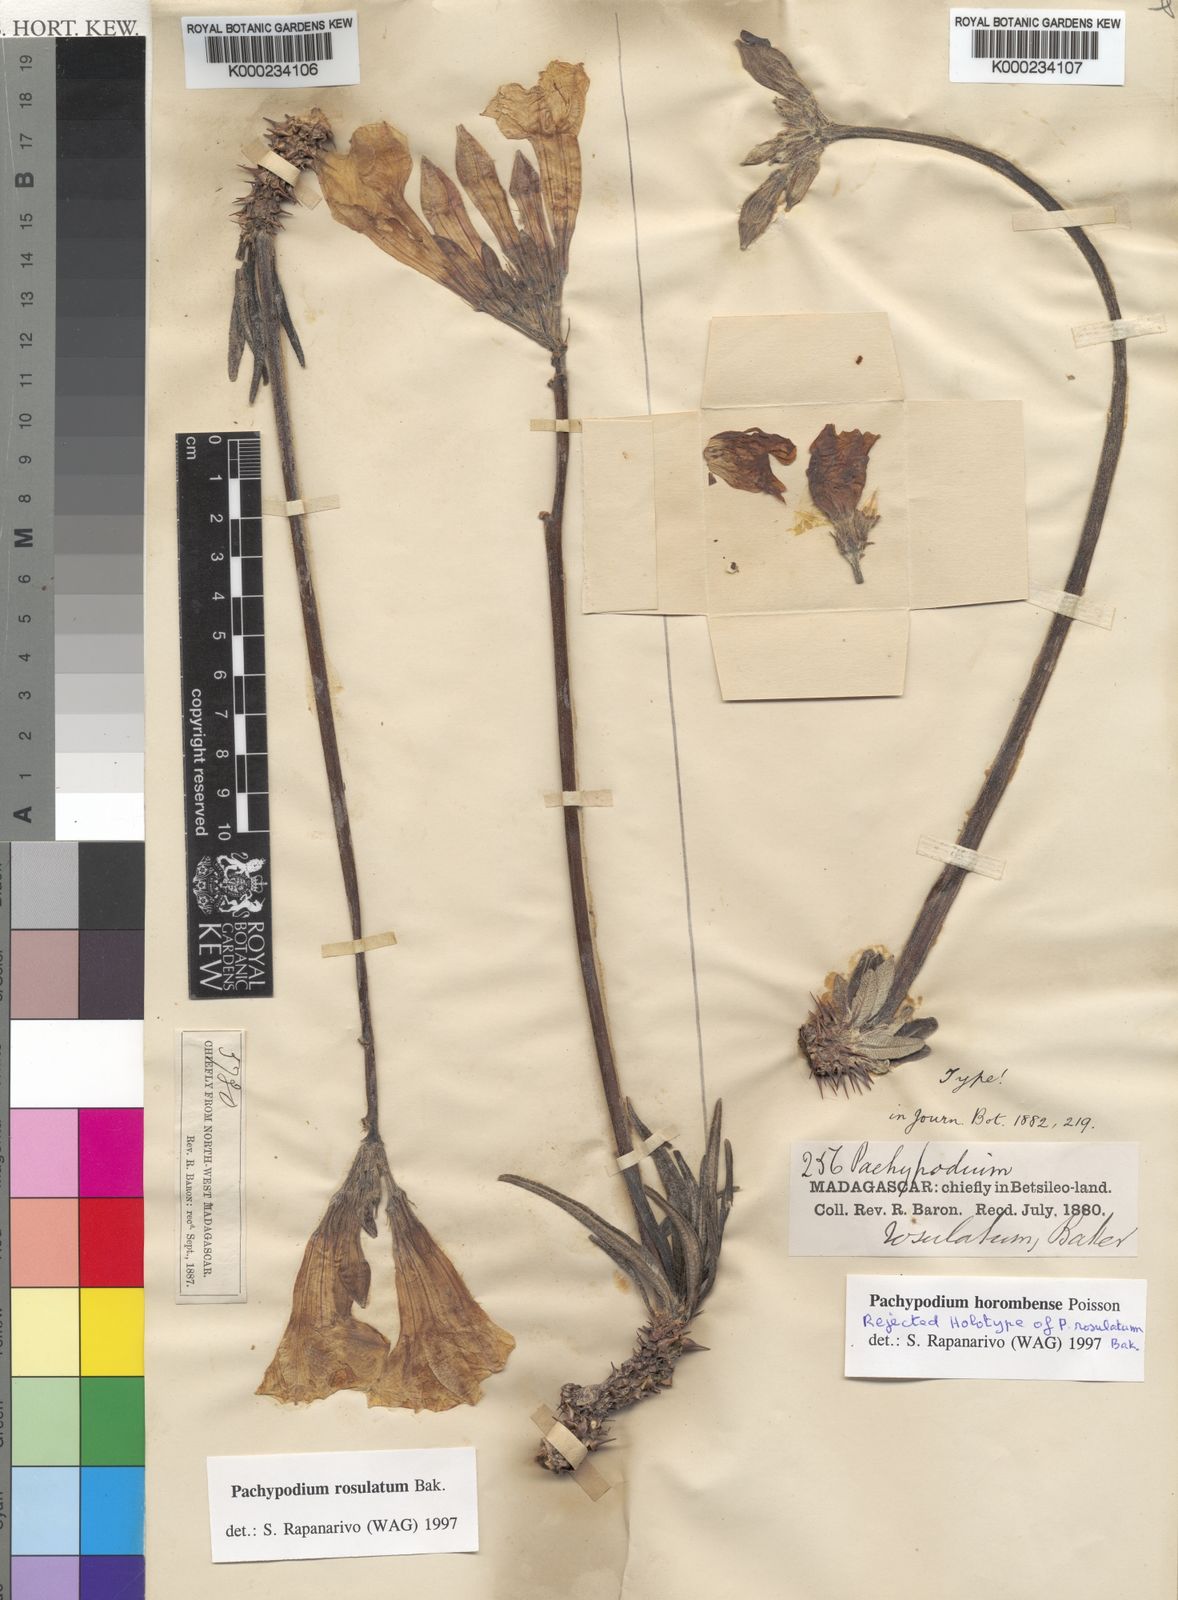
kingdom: Plantae
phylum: Tracheophyta
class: Magnoliopsida
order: Gentianales
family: Apocynaceae
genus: Pachypodium
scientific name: Pachypodium horombense
